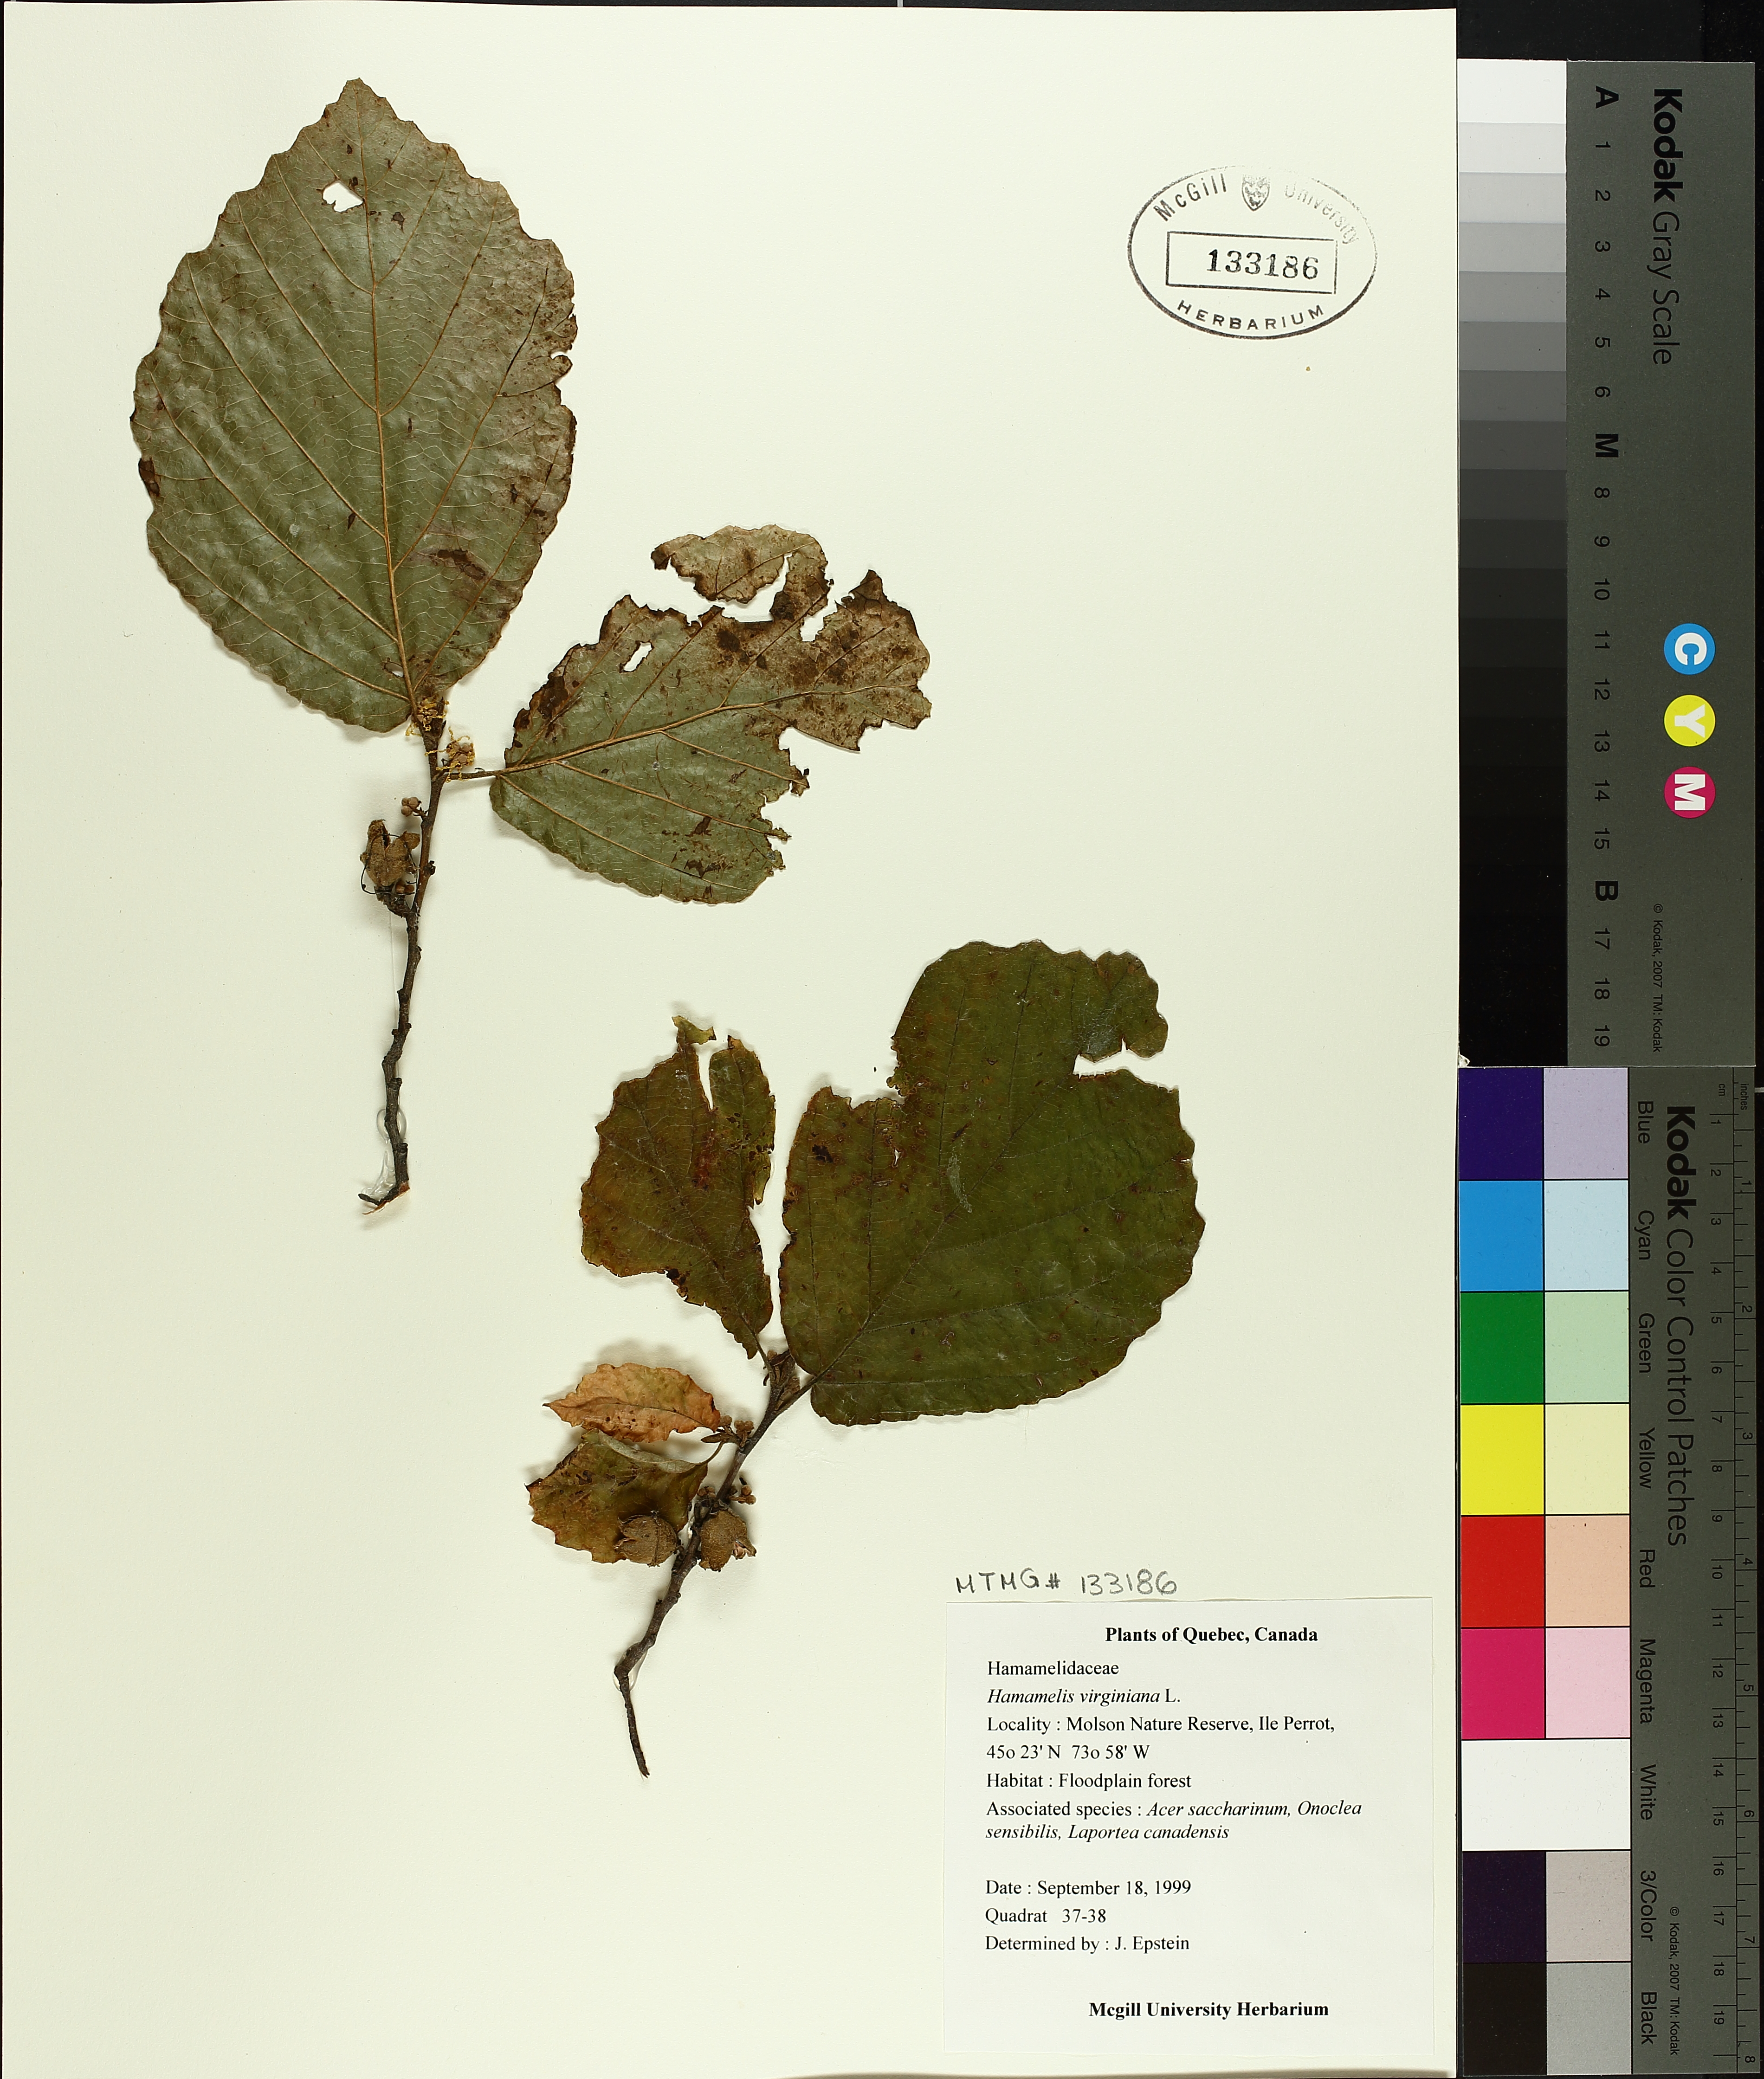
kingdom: Plantae
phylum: Tracheophyta
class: Magnoliopsida
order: Saxifragales
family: Hamamelidaceae
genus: Hamamelis
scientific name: Hamamelis virginiana
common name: Witch-hazel
